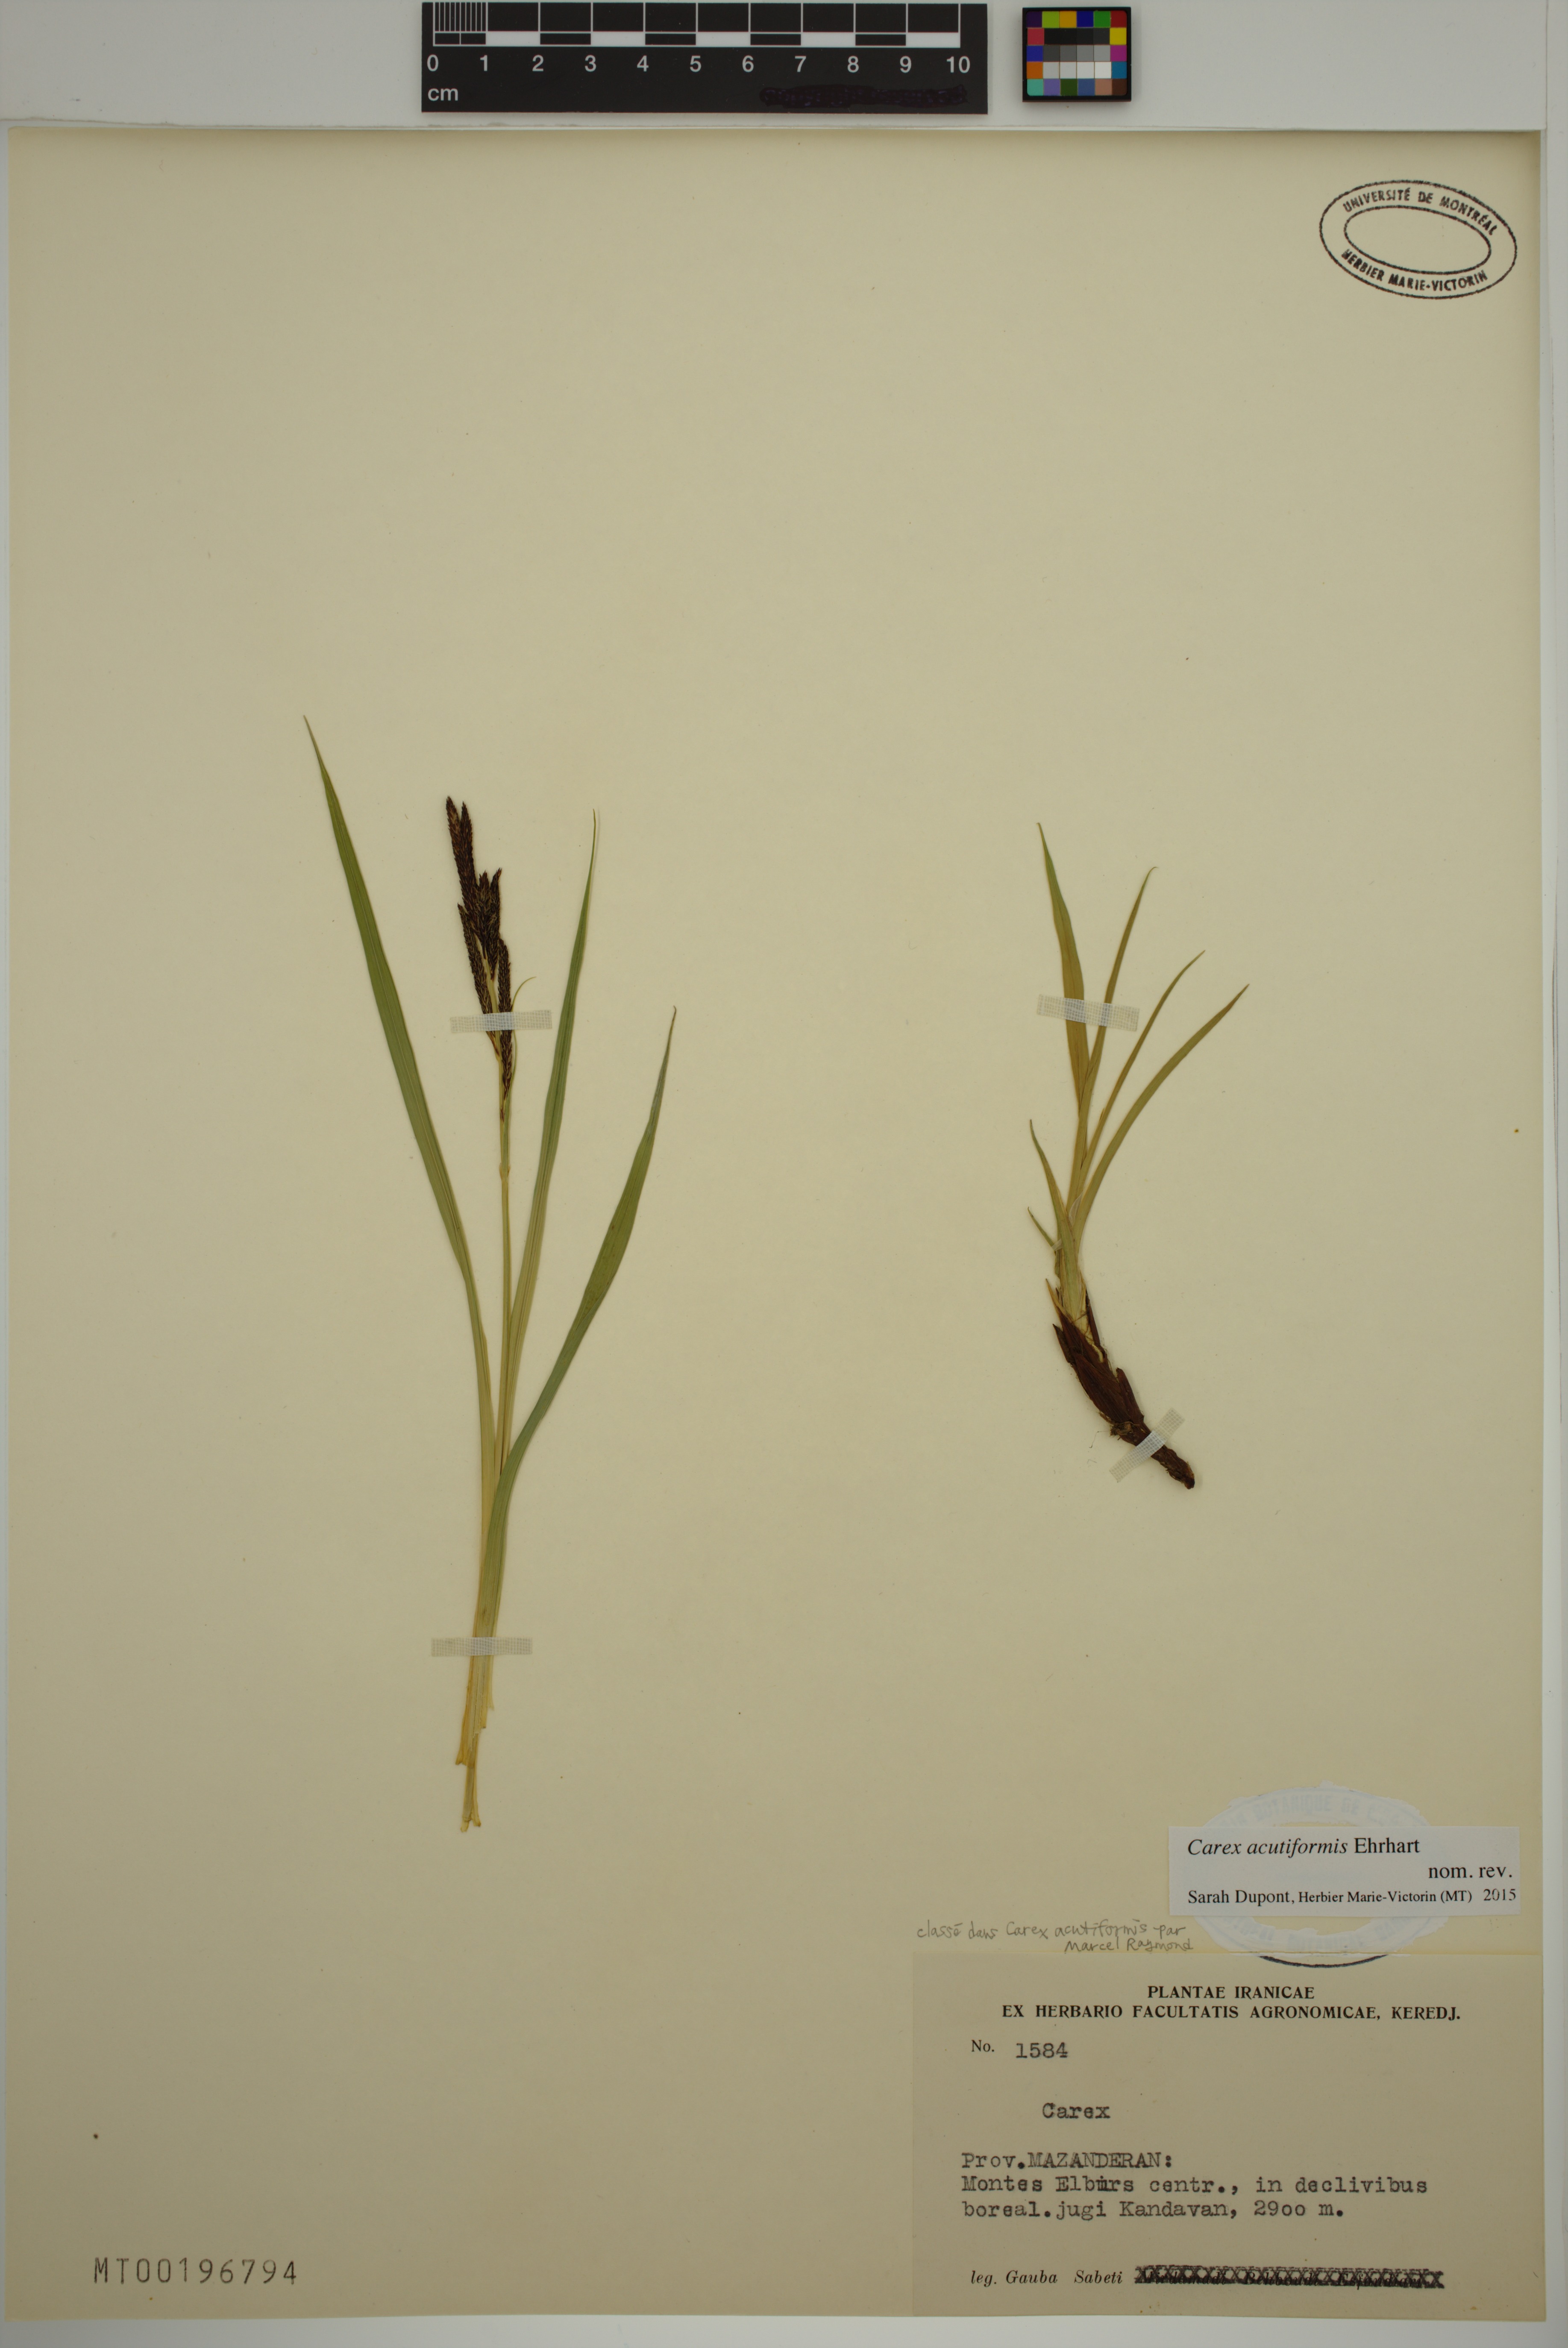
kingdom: Plantae
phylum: Tracheophyta
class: Liliopsida
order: Poales
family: Cyperaceae
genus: Carex
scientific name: Carex acutiformis
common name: Lesser pond-sedge
